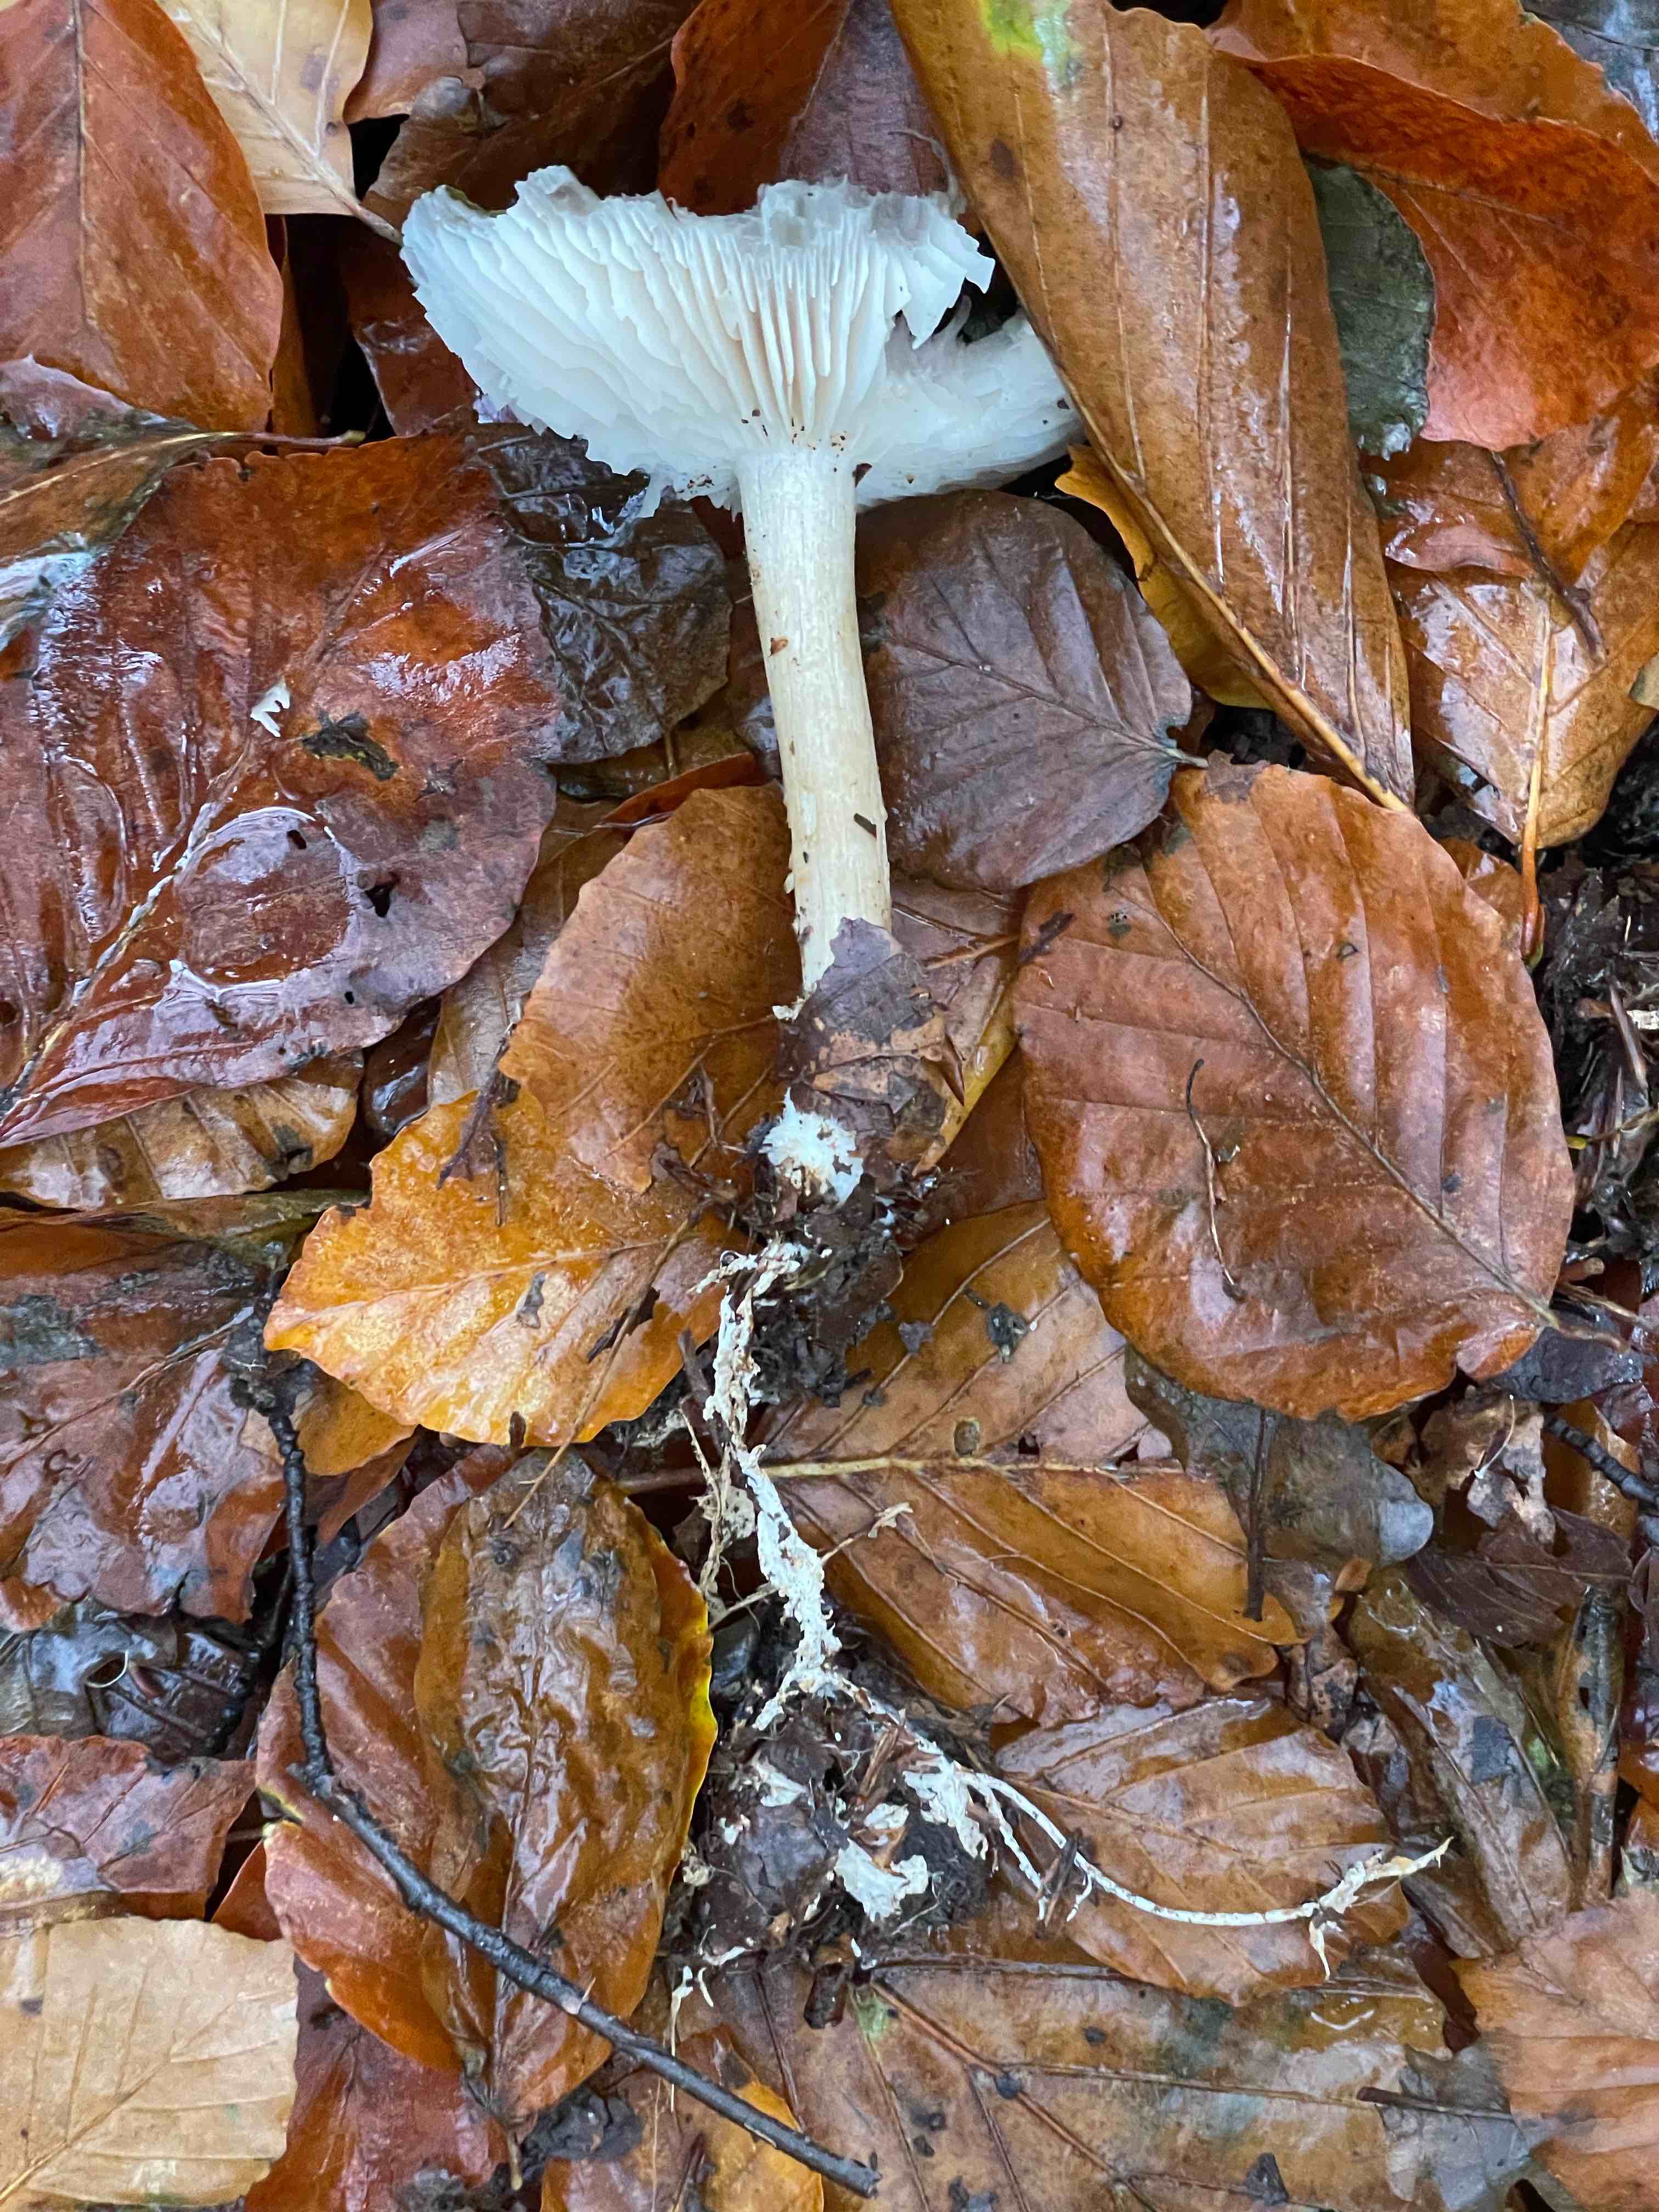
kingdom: Fungi
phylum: Basidiomycota
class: Agaricomycetes
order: Agaricales
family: Tricholomataceae
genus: Megacollybia
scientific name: Megacollybia platyphylla
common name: bredbladet væbnerhat
